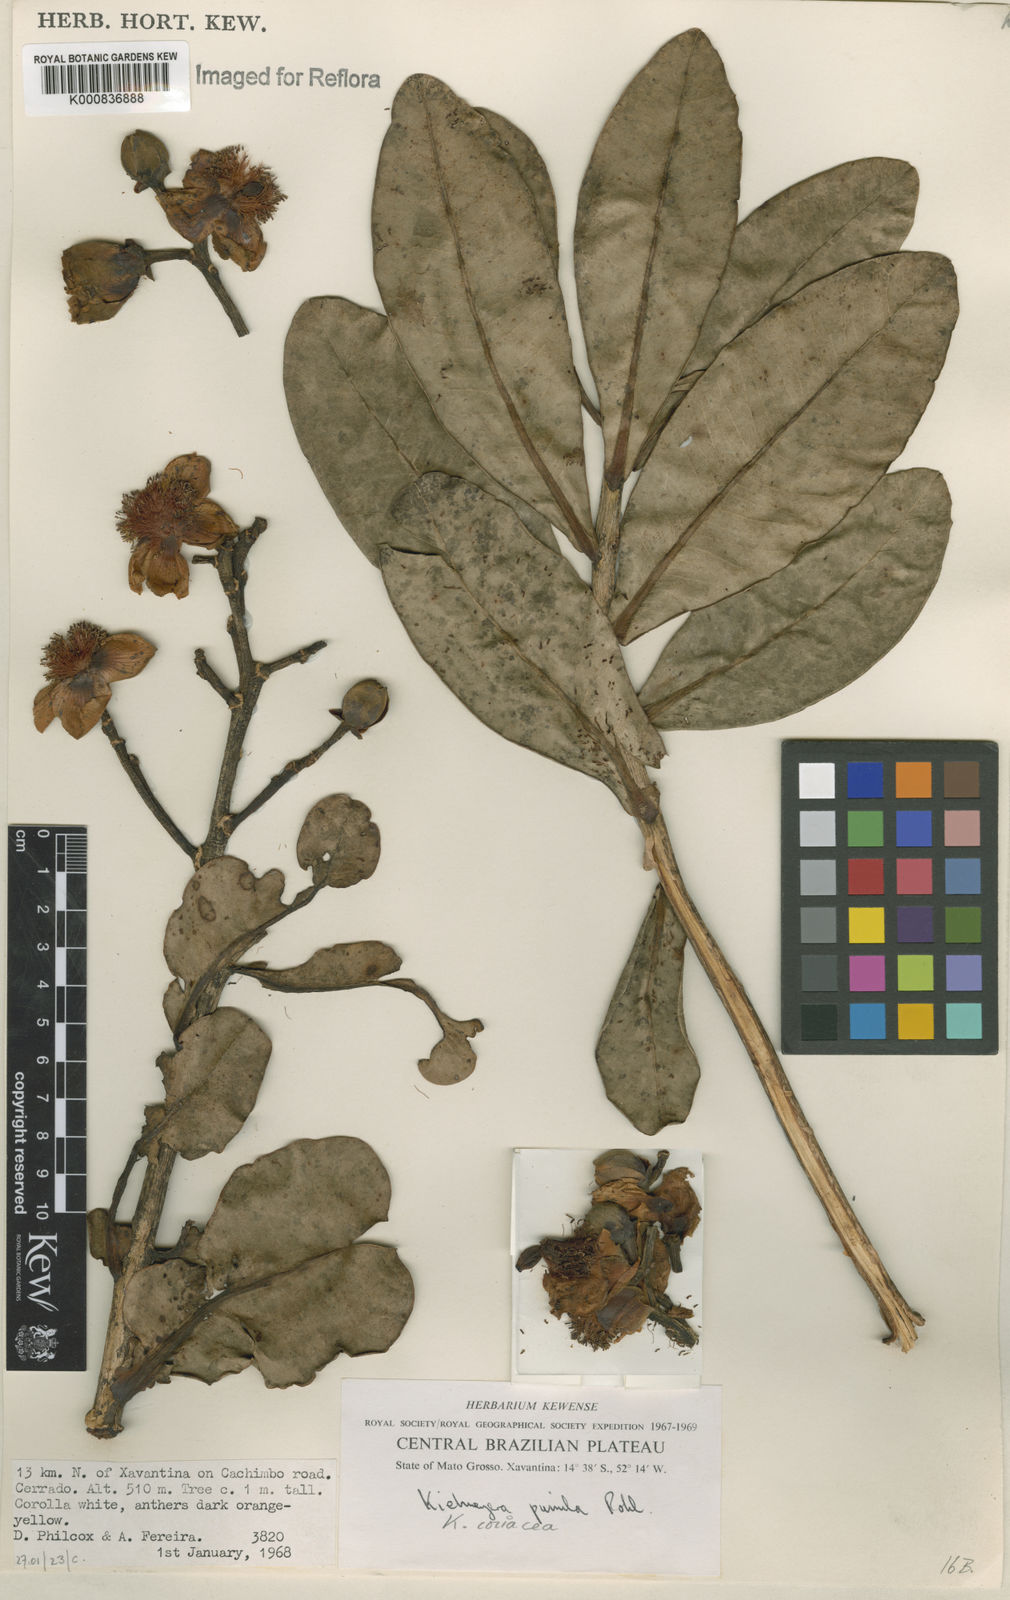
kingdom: Plantae
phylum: Tracheophyta
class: Magnoliopsida
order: Malpighiales
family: Calophyllaceae
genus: Kielmeyera
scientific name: Kielmeyera coriacea
